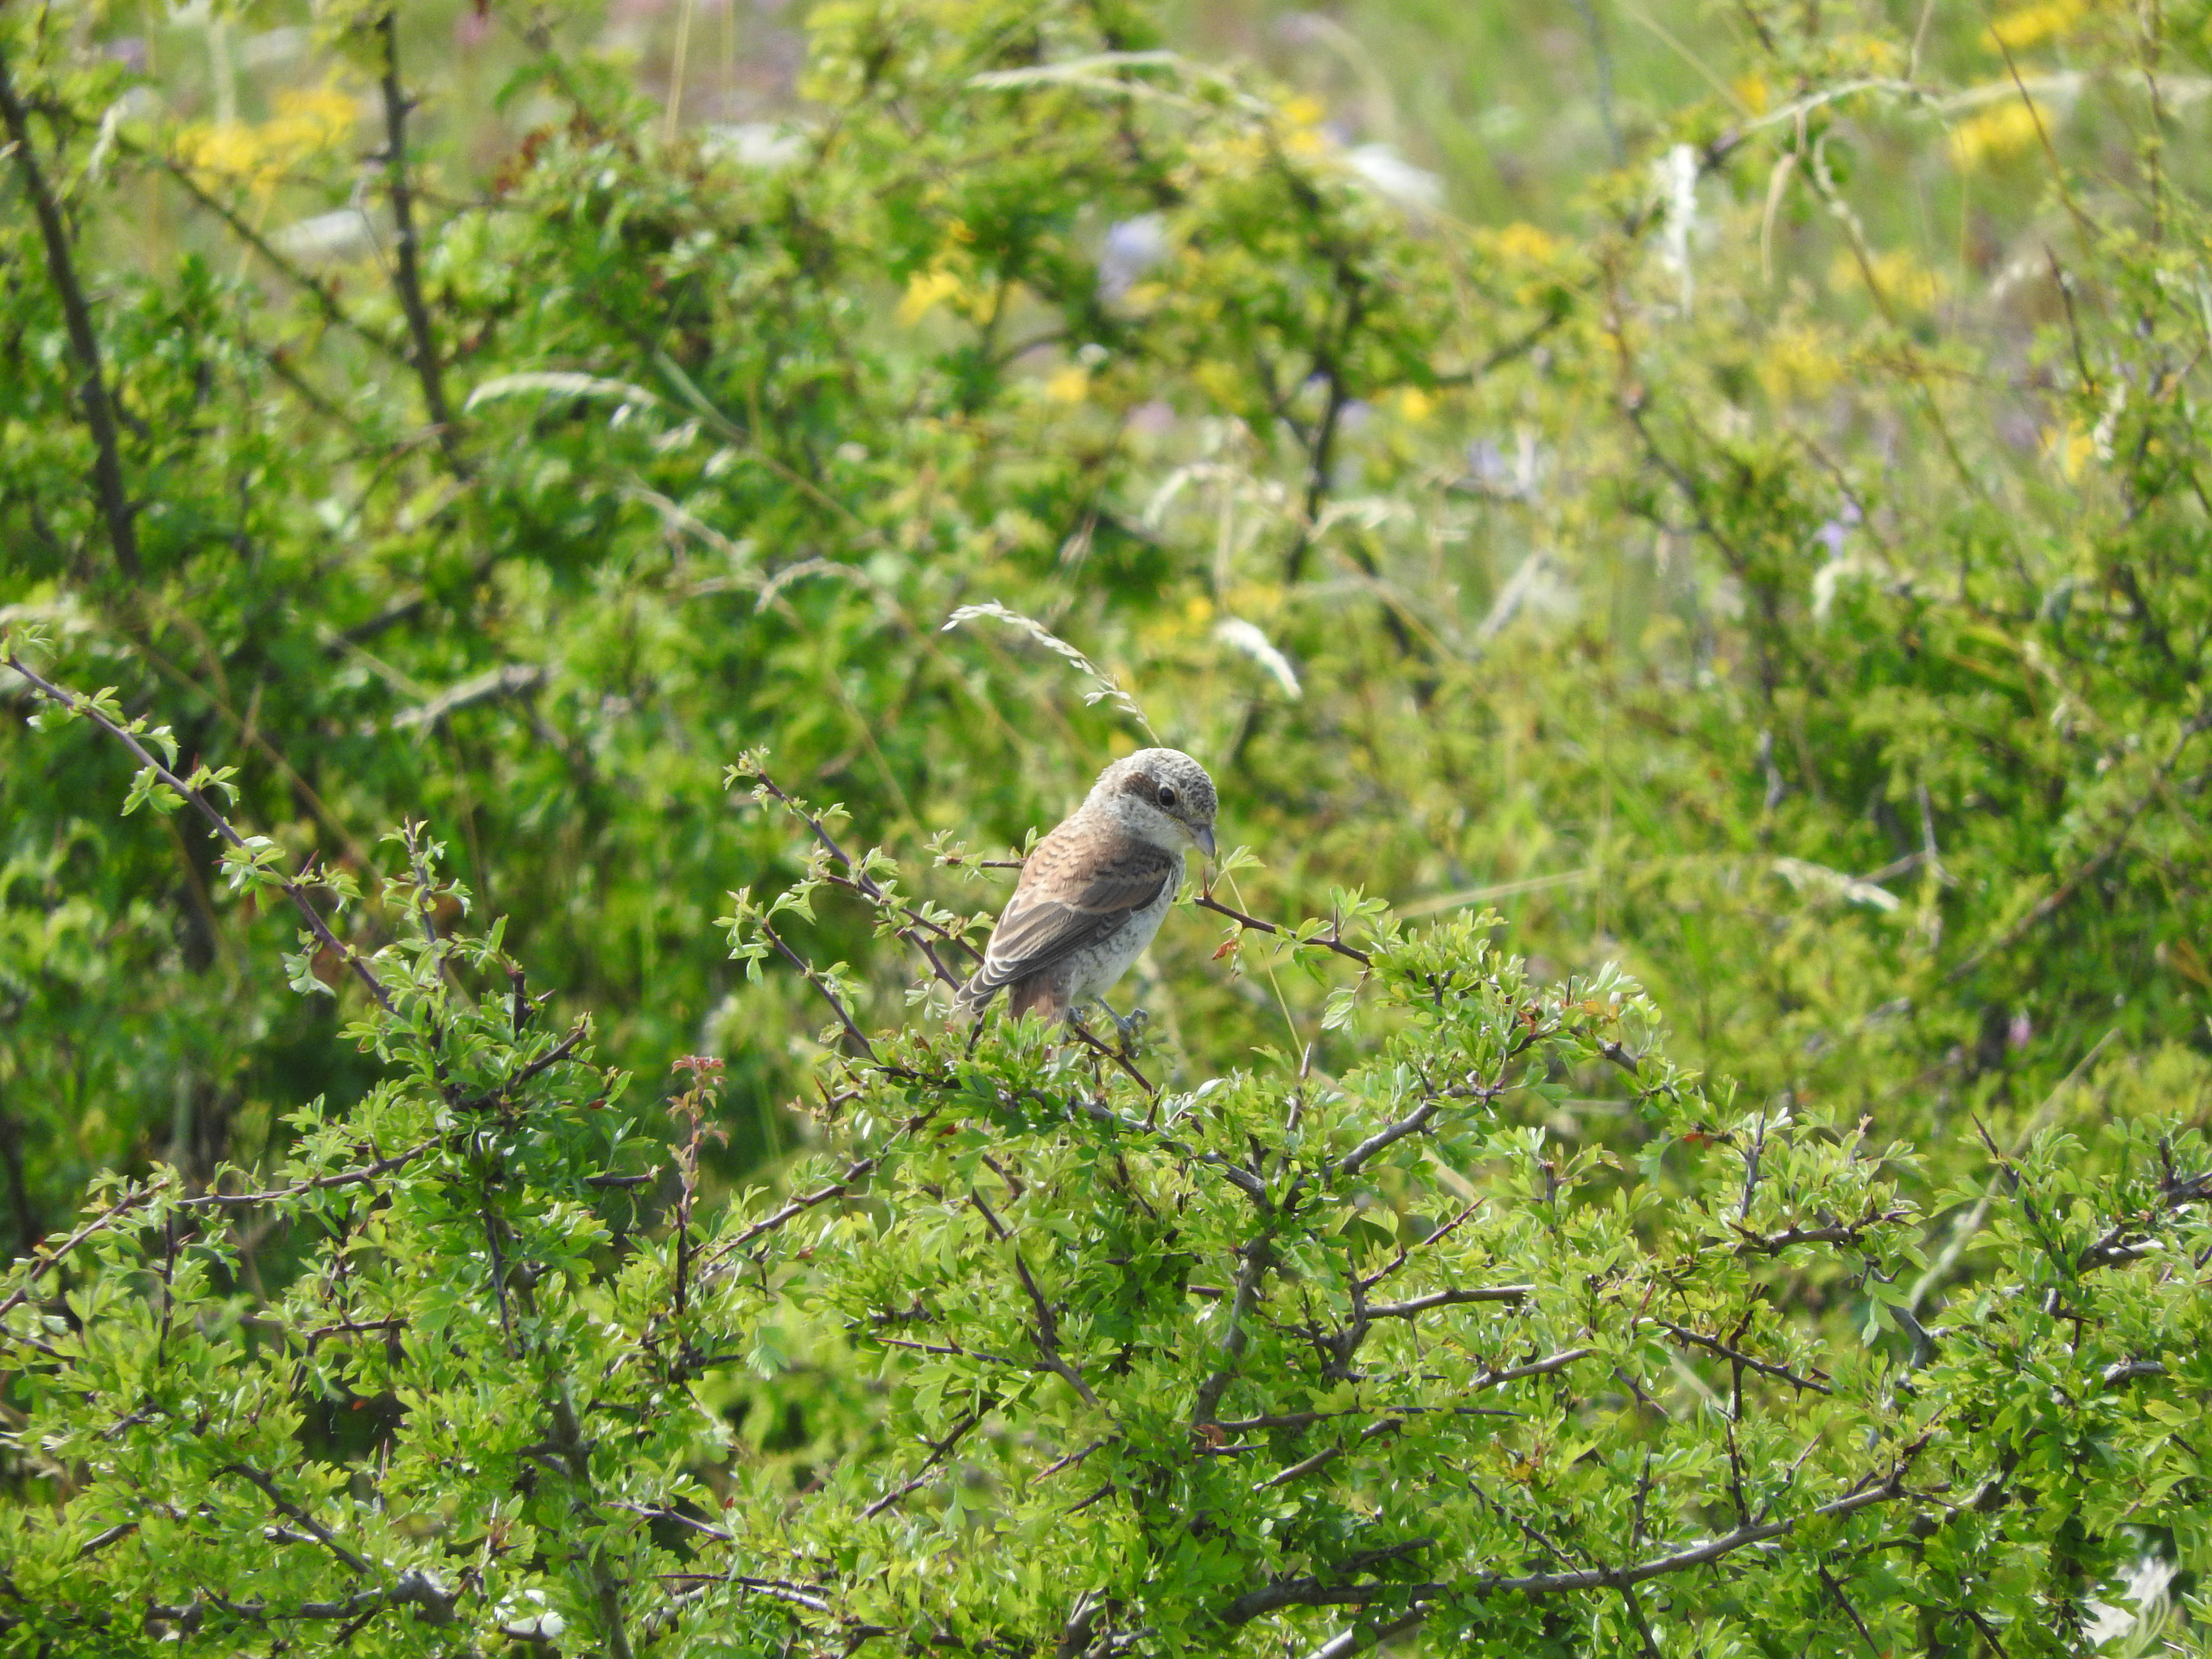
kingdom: Animalia
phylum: Chordata
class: Aves
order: Passeriformes
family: Laniidae
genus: Lanius
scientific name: Lanius collurio
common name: Rødrygget tornskade
